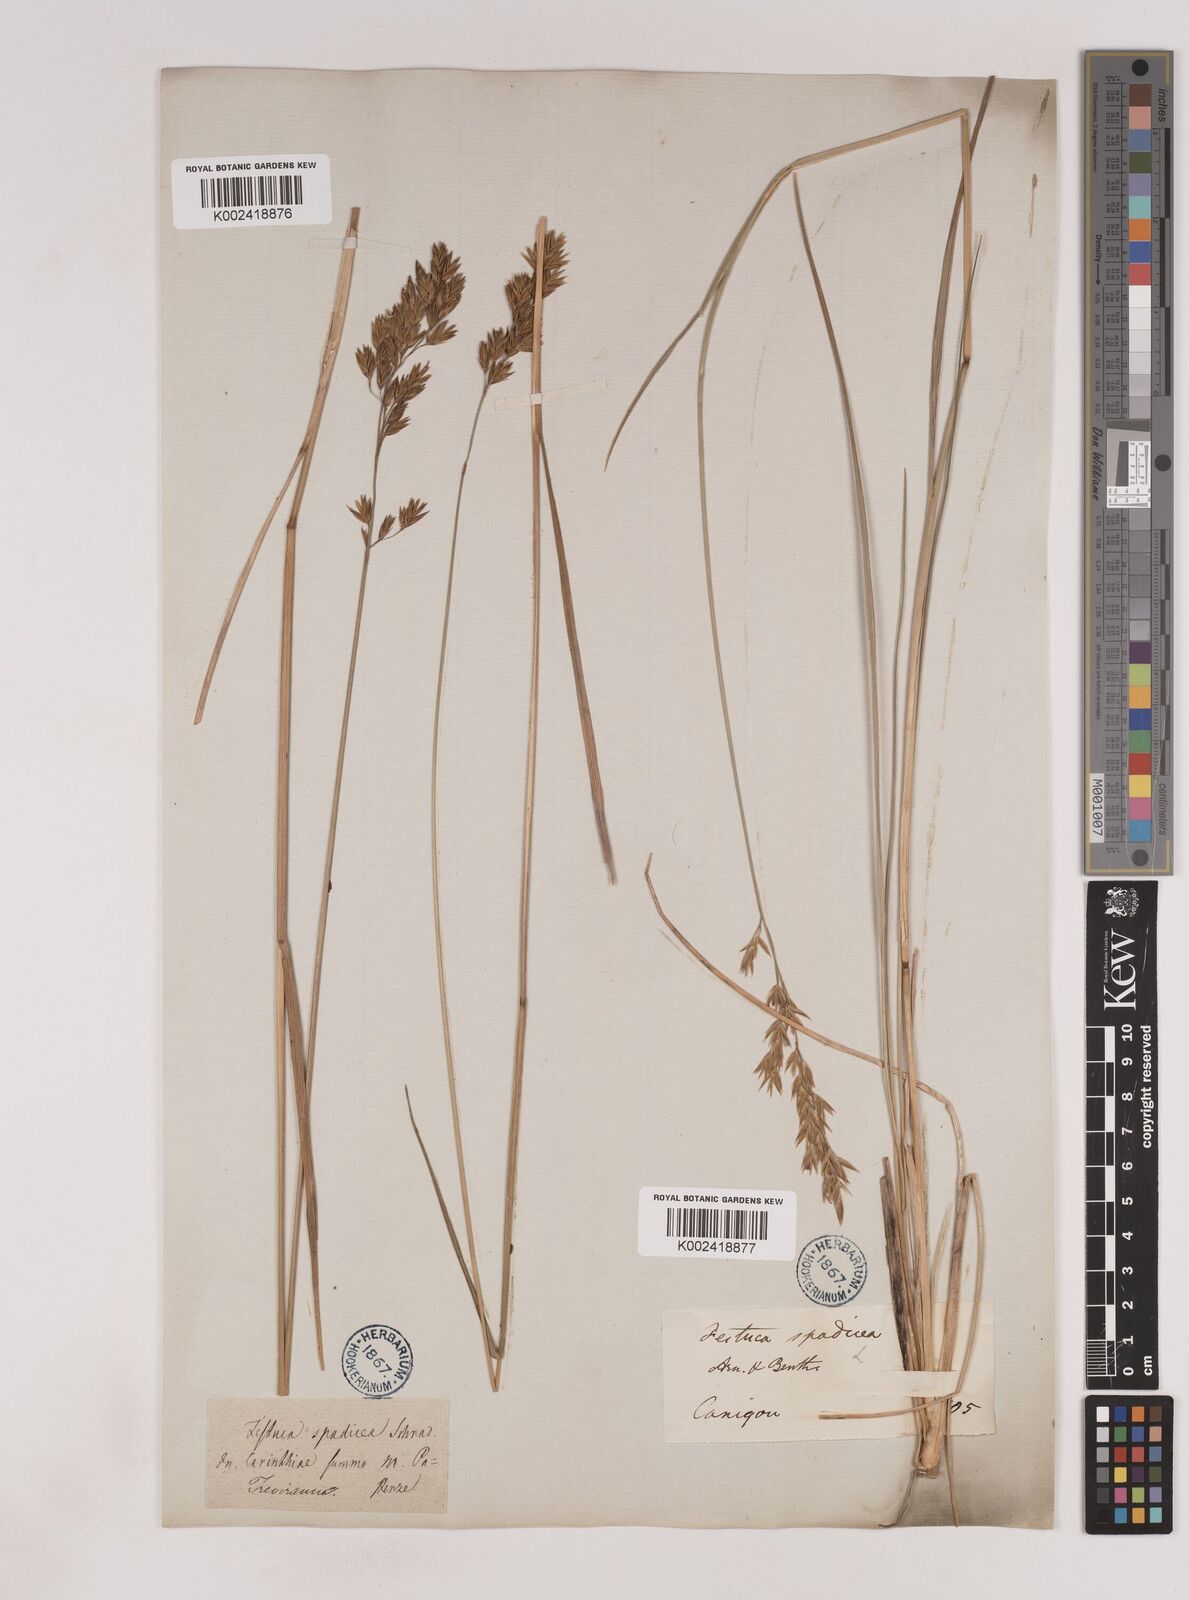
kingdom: Plantae
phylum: Tracheophyta
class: Liliopsida
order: Poales
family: Poaceae
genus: Patzkea
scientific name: Patzkea paniculata
